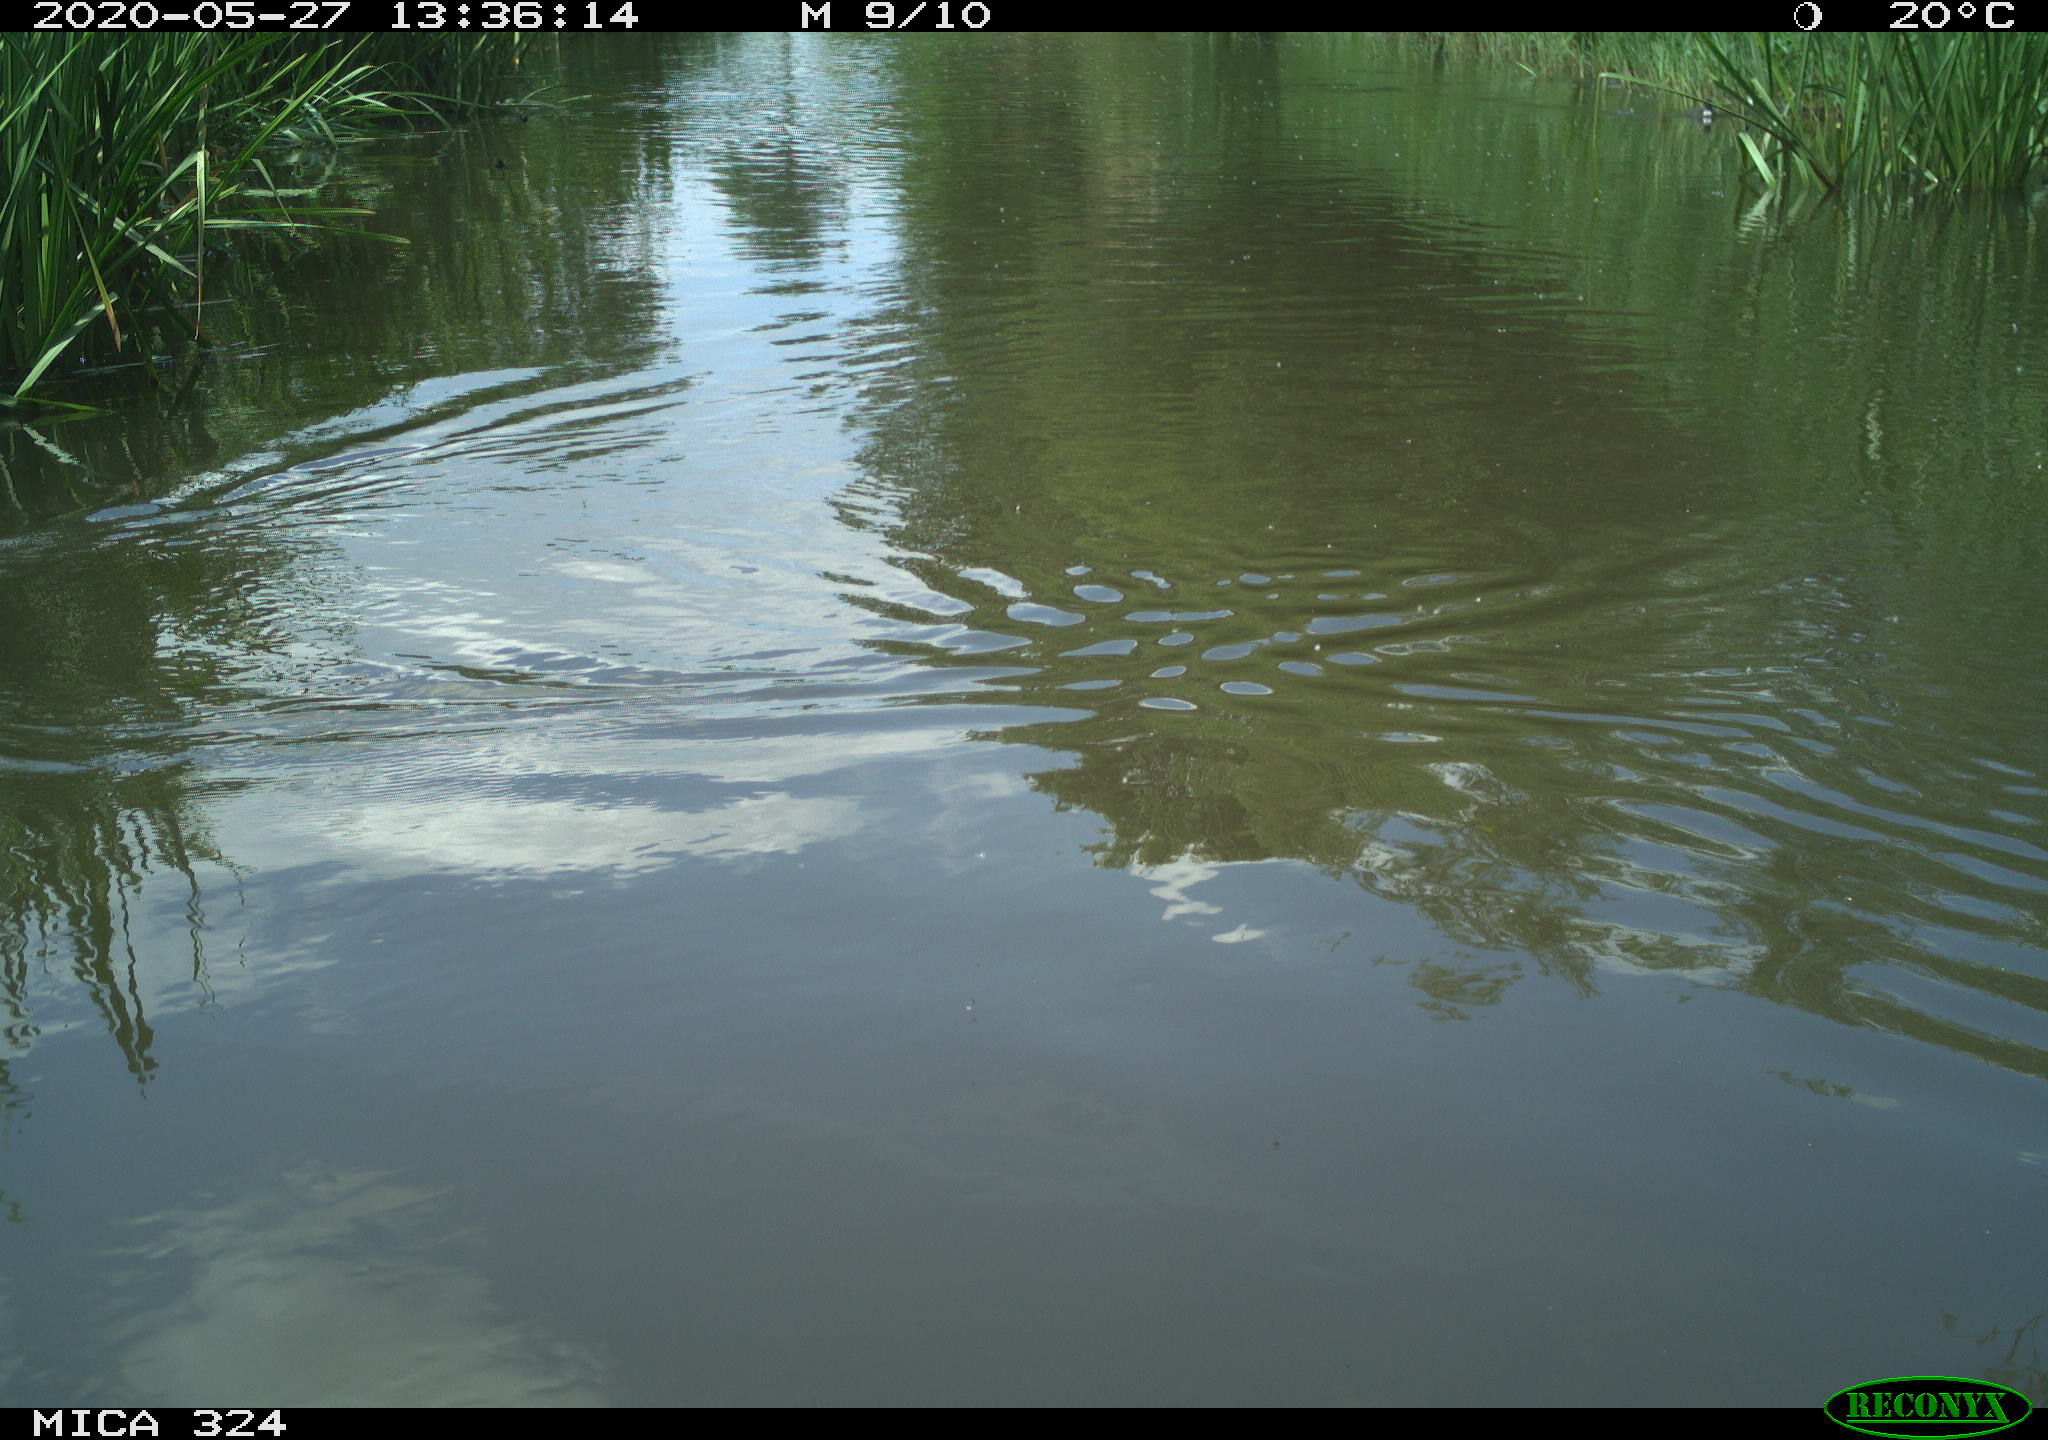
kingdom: Animalia
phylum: Chordata
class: Aves
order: Gruiformes
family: Rallidae
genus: Fulica
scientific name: Fulica atra
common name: Eurasian coot
